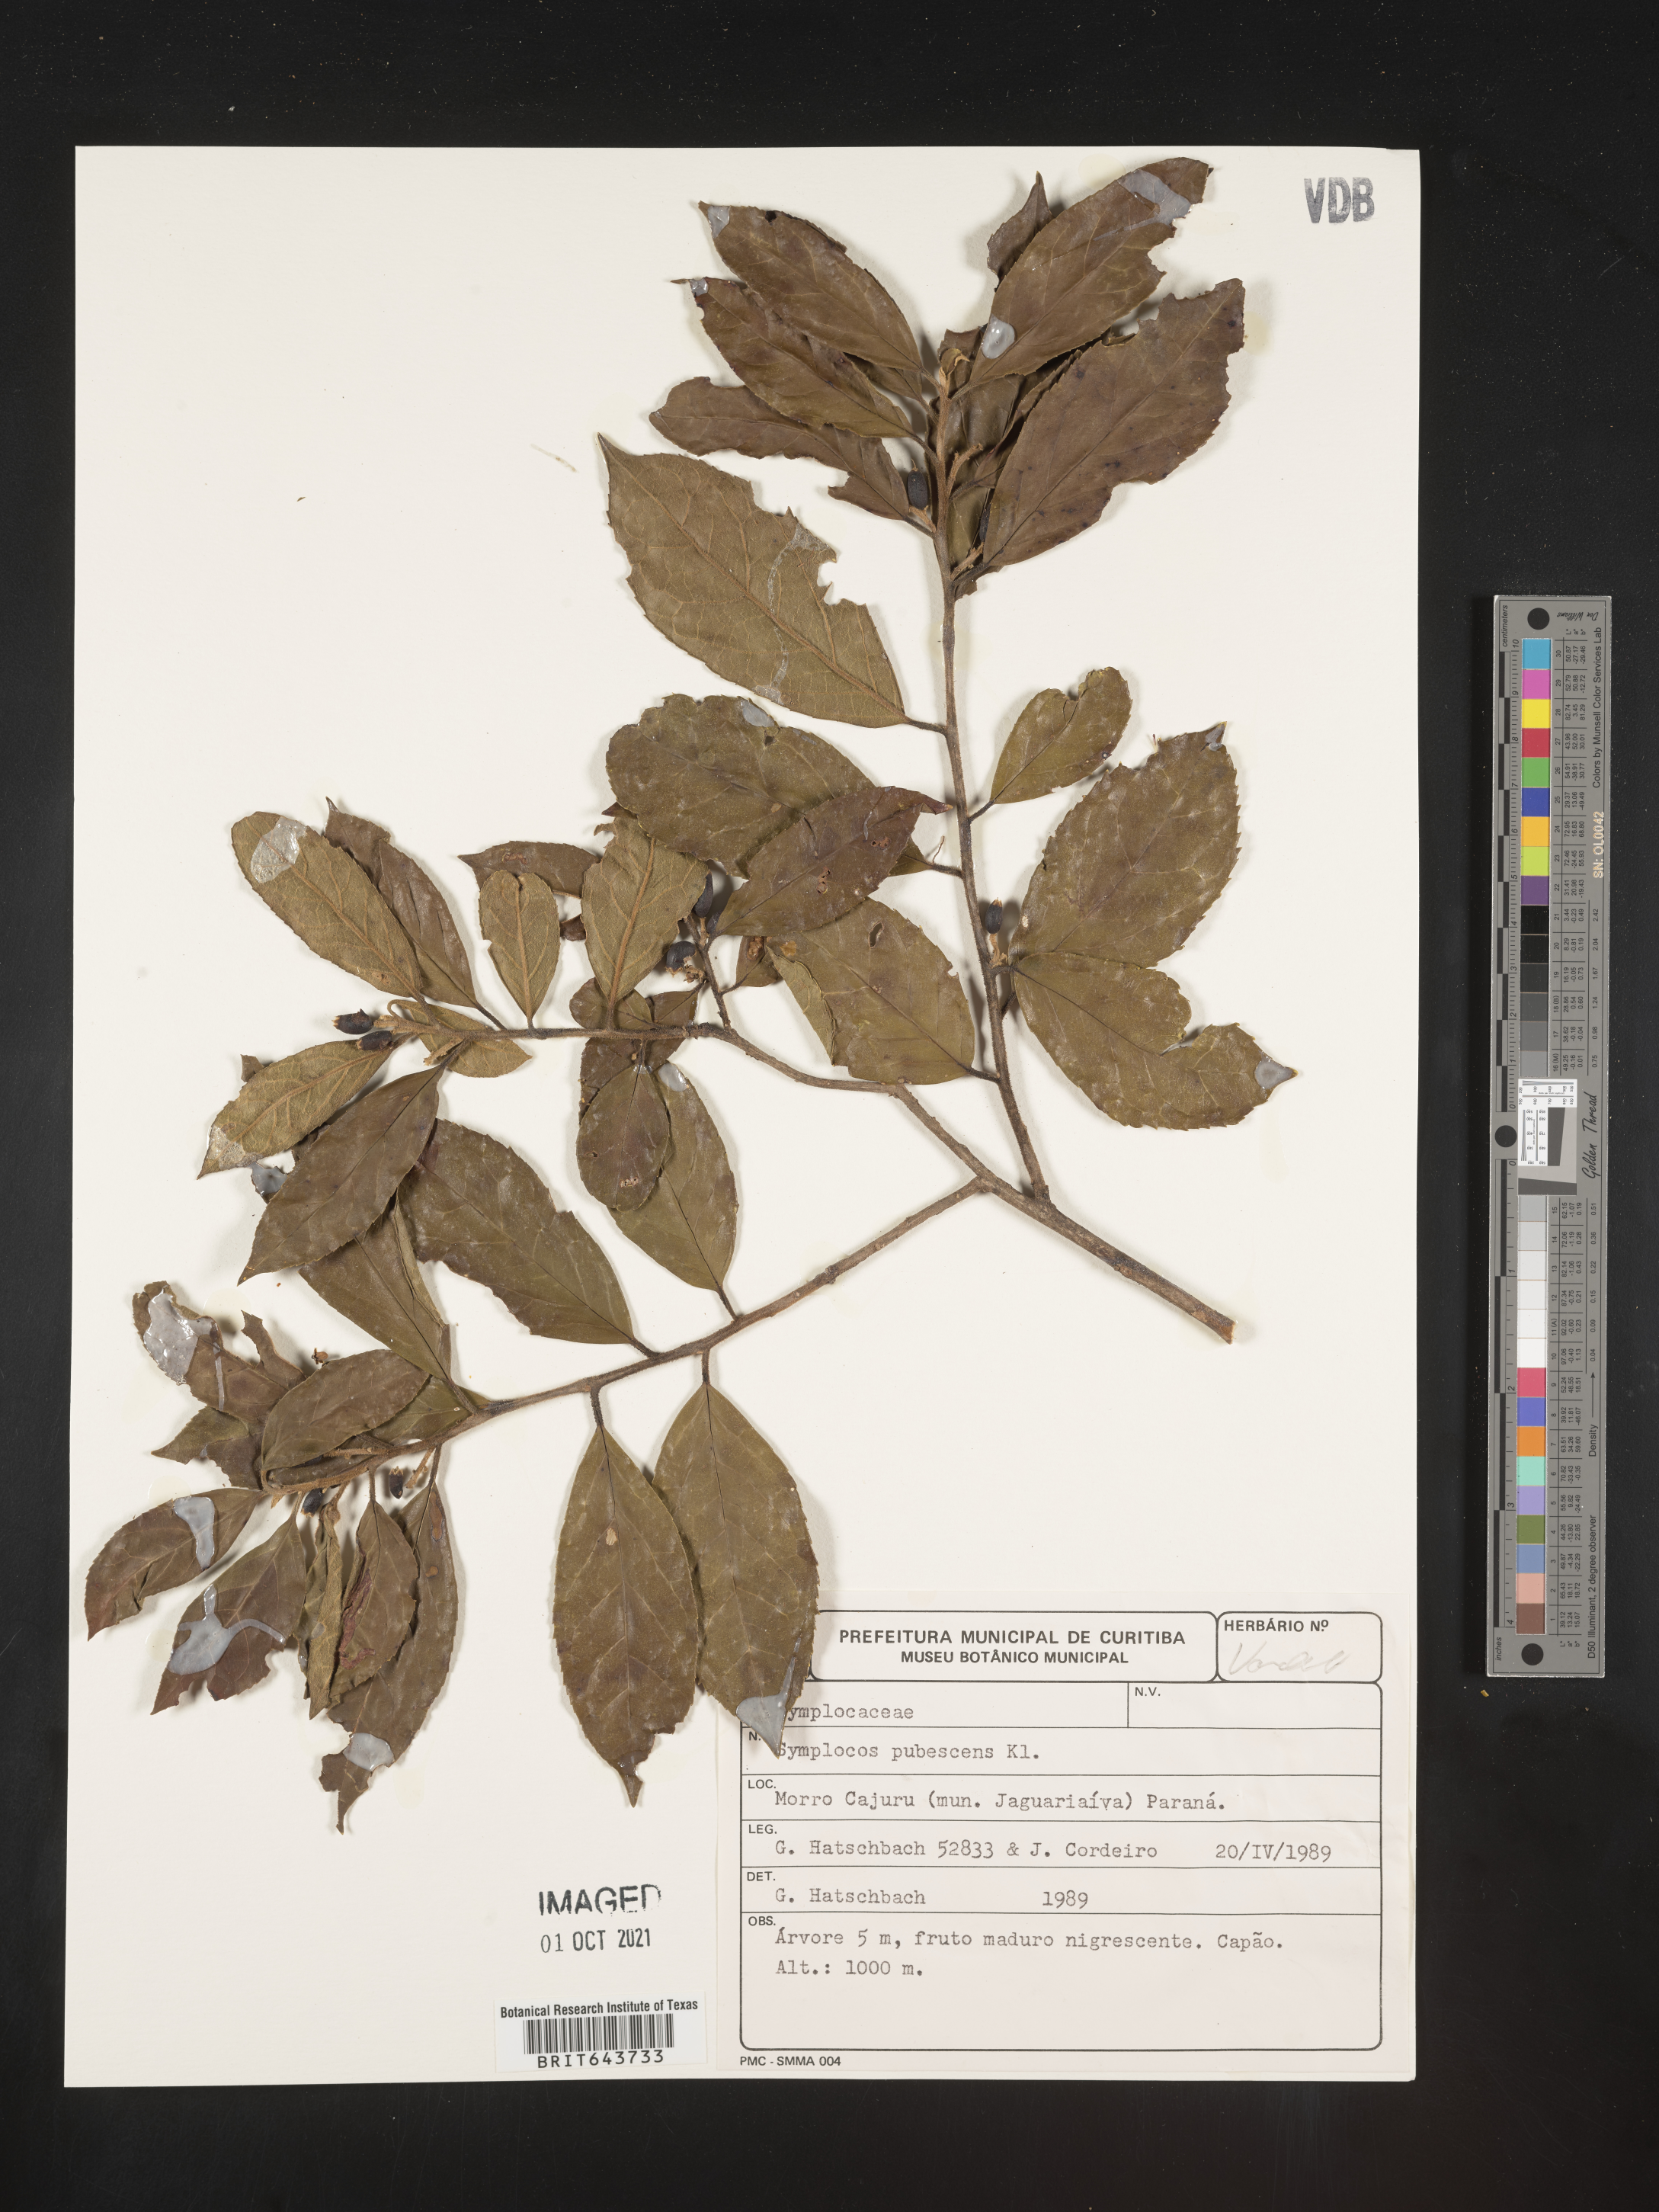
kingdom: Plantae
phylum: Tracheophyta
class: Magnoliopsida
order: Ericales
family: Symplocaceae
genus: Symplocos
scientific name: Symplocos
